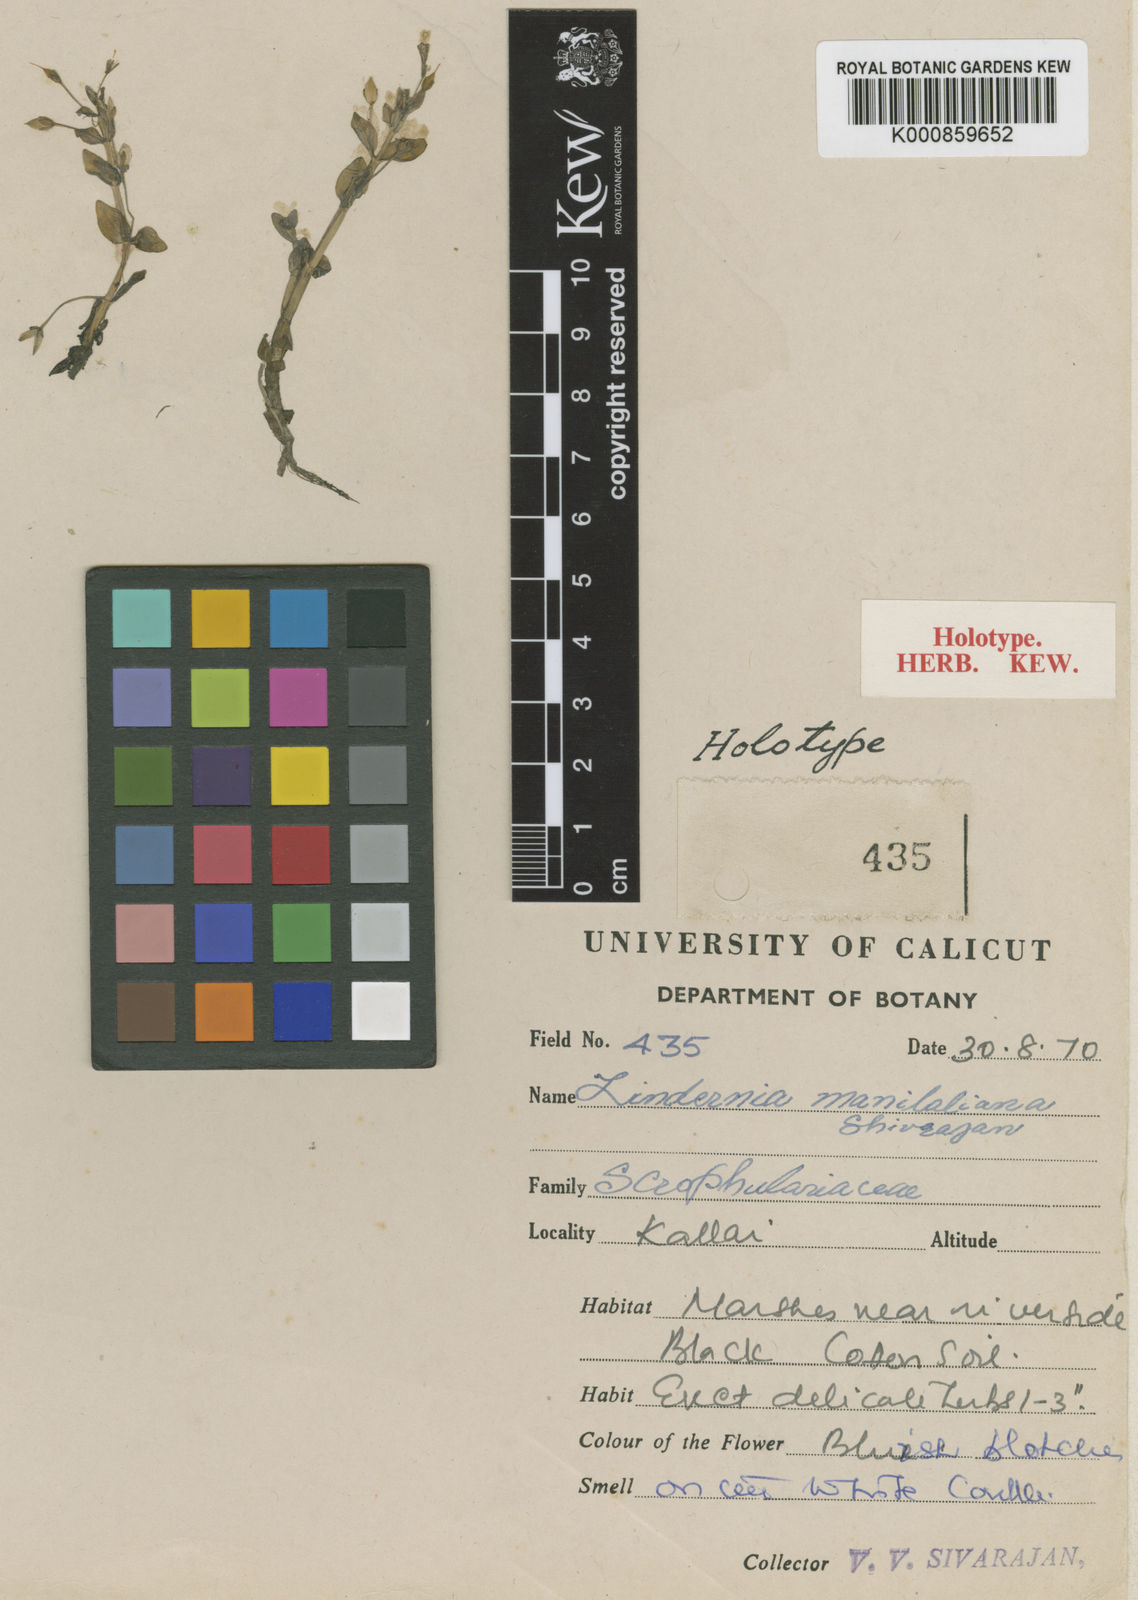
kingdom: Plantae
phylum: Tracheophyta
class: Magnoliopsida
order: Lamiales
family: Linderniaceae
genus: Lindernia
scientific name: Lindernia manilaliana
